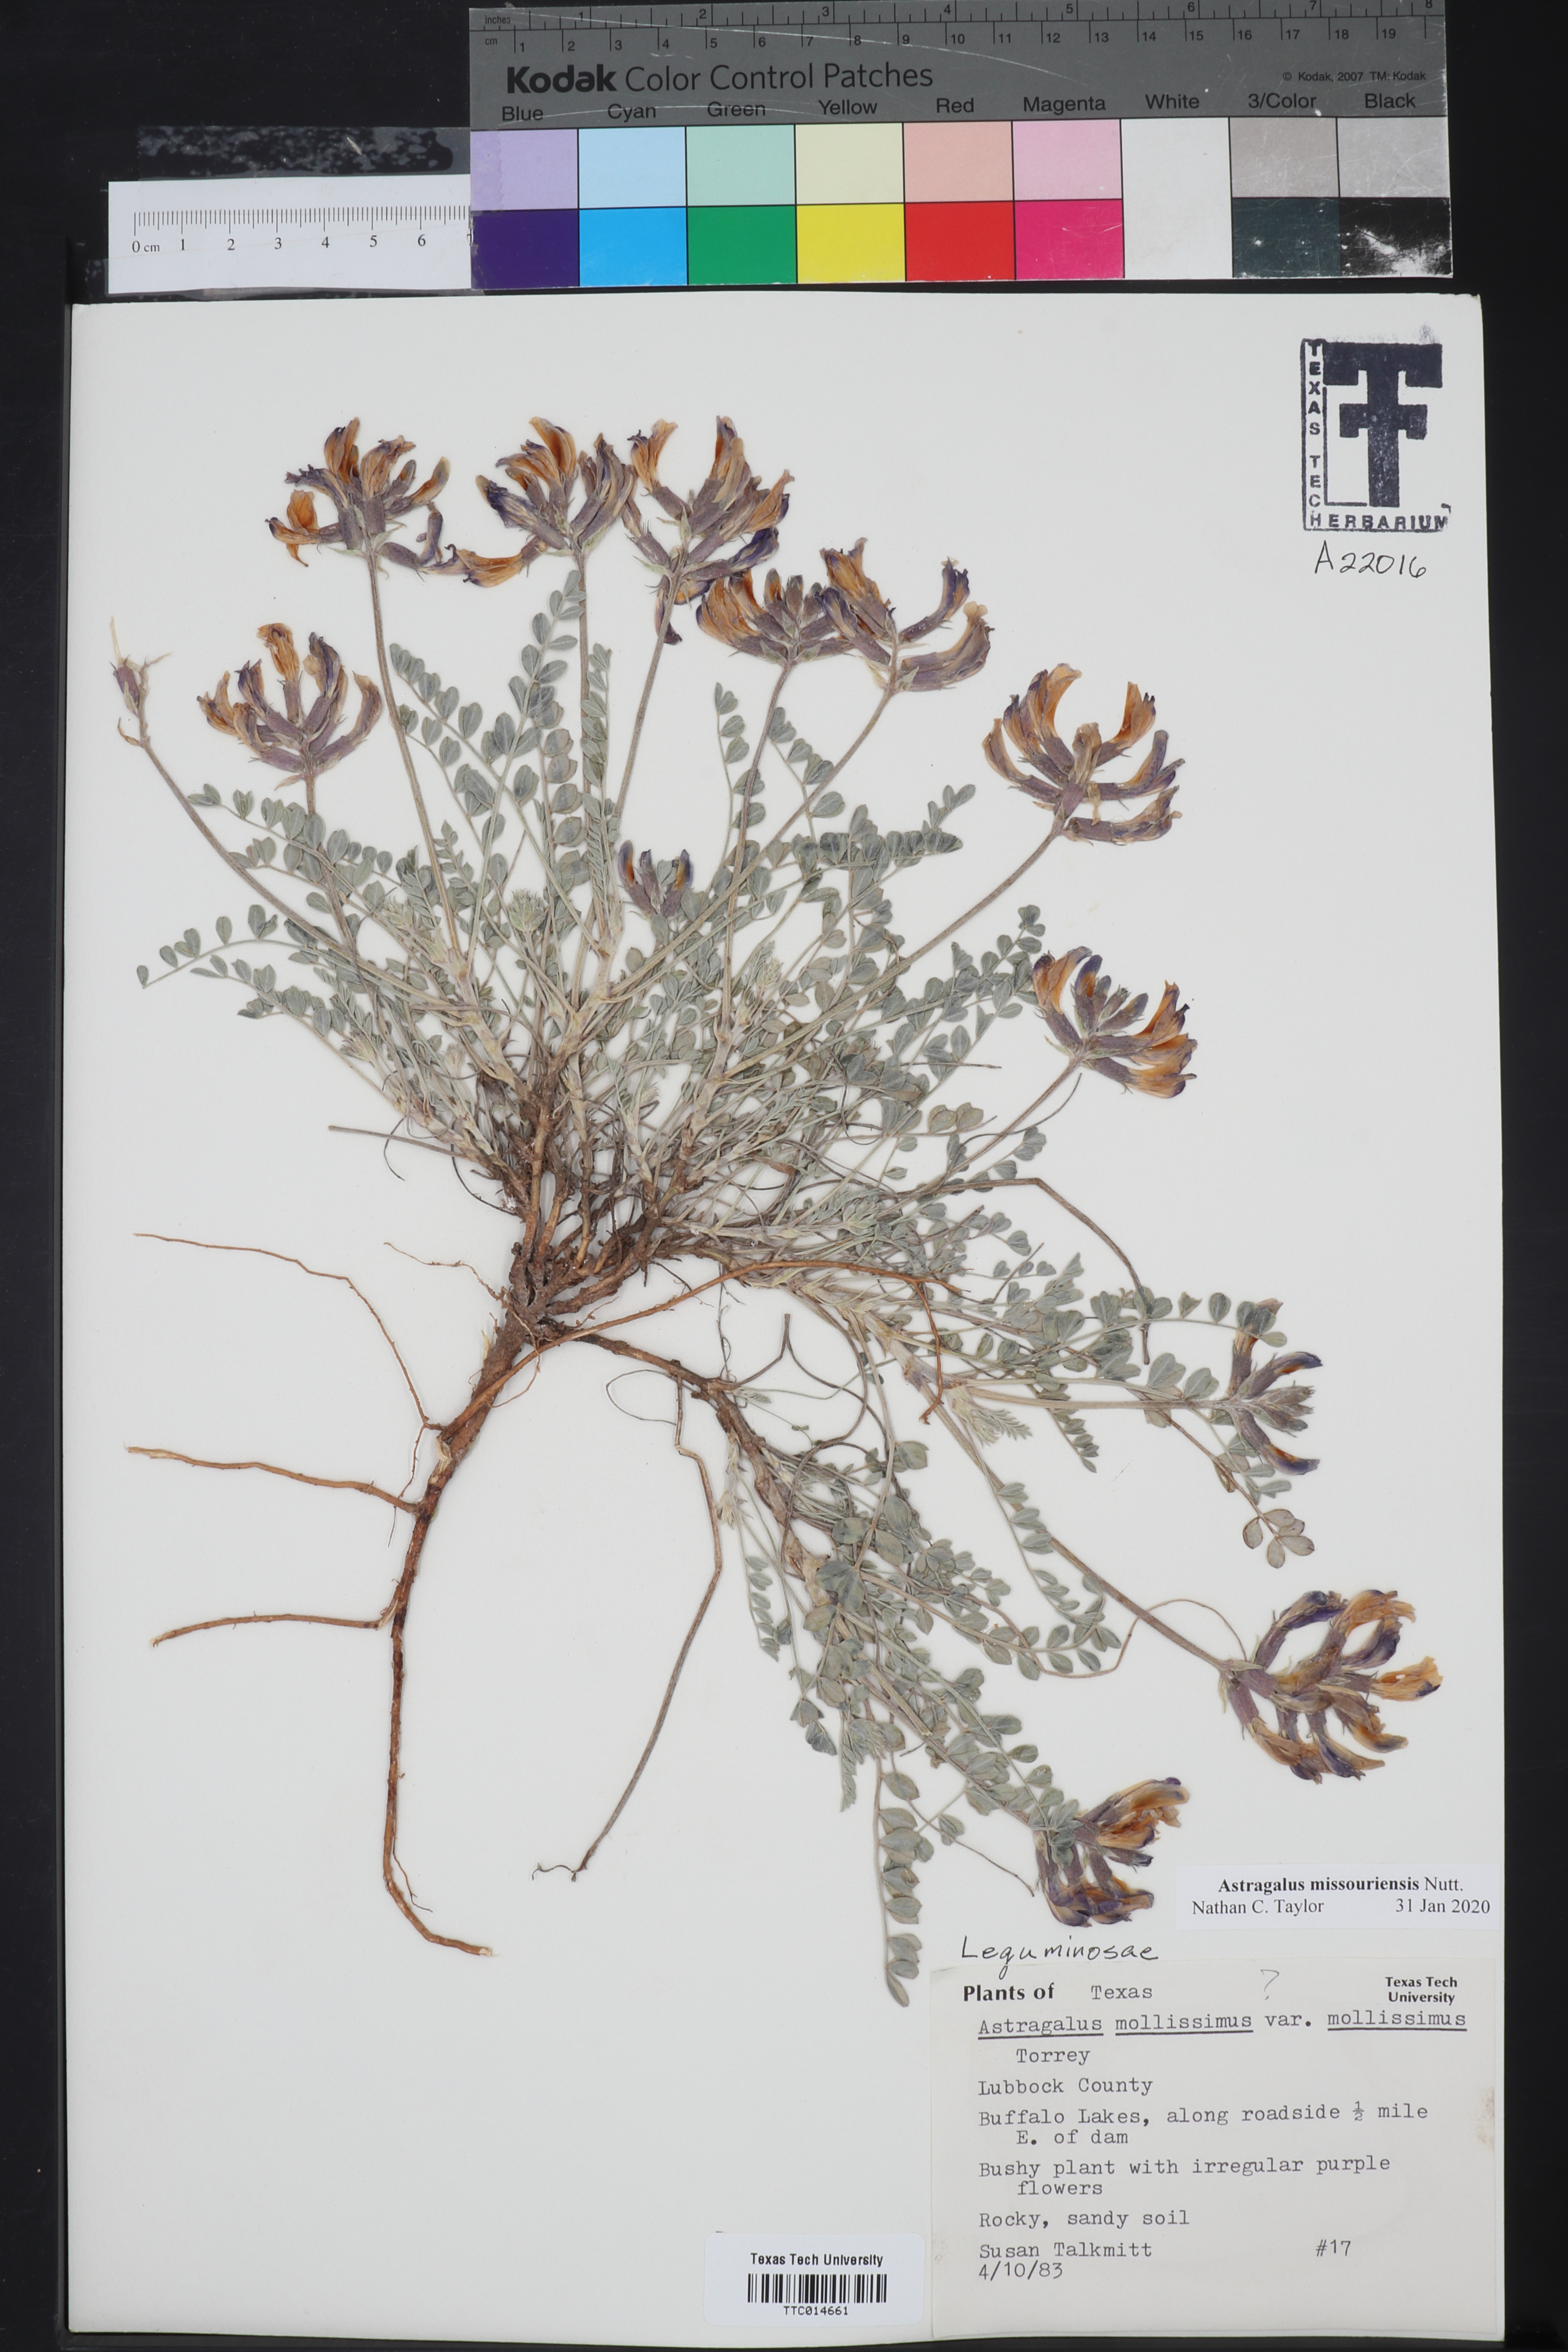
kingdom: Plantae
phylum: Tracheophyta
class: Magnoliopsida
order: Fabales
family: Fabaceae
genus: Astragalus
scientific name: Astragalus missouriensis
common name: Missouri milk-vetch
